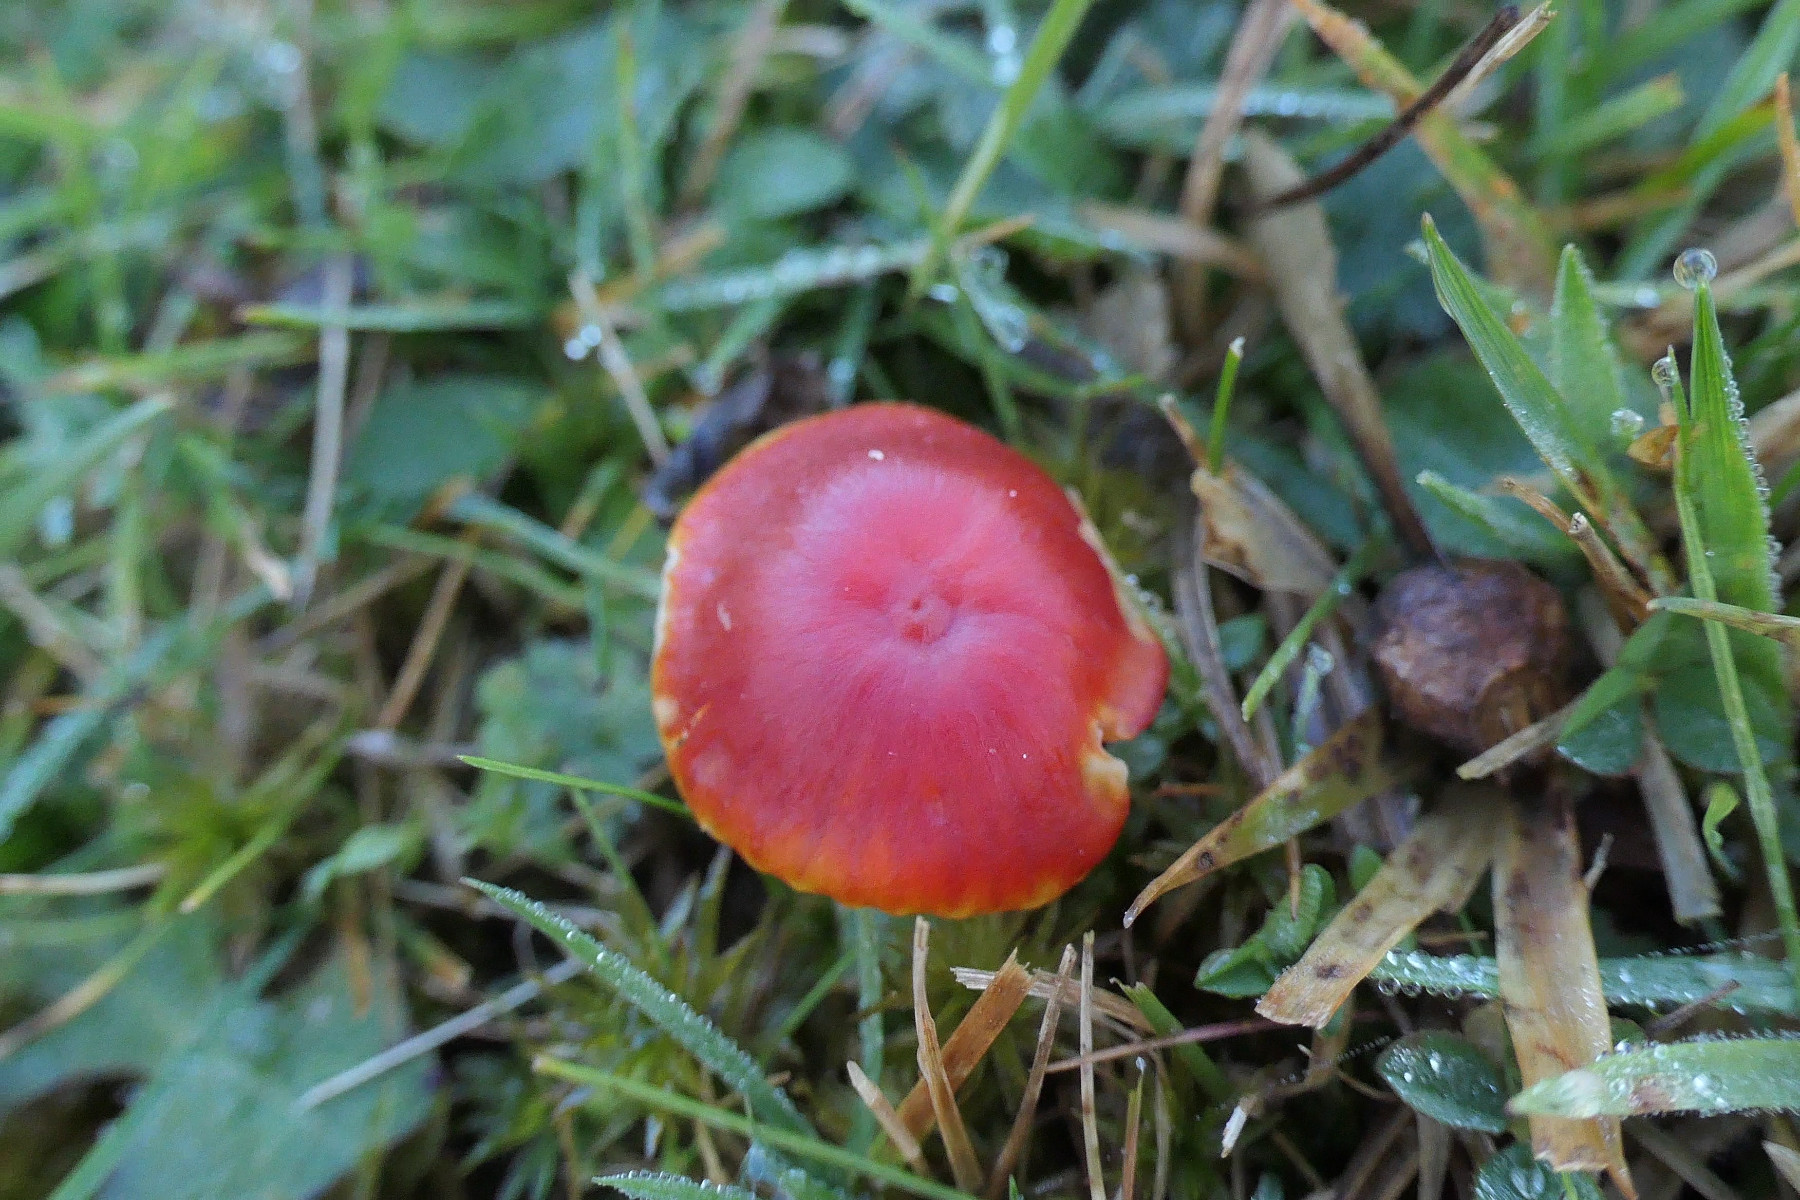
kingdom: Fungi
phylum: Basidiomycota
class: Agaricomycetes
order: Agaricales
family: Hygrophoraceae
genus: Hygrocybe
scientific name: Hygrocybe coccinea
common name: cinnober-vokshat
